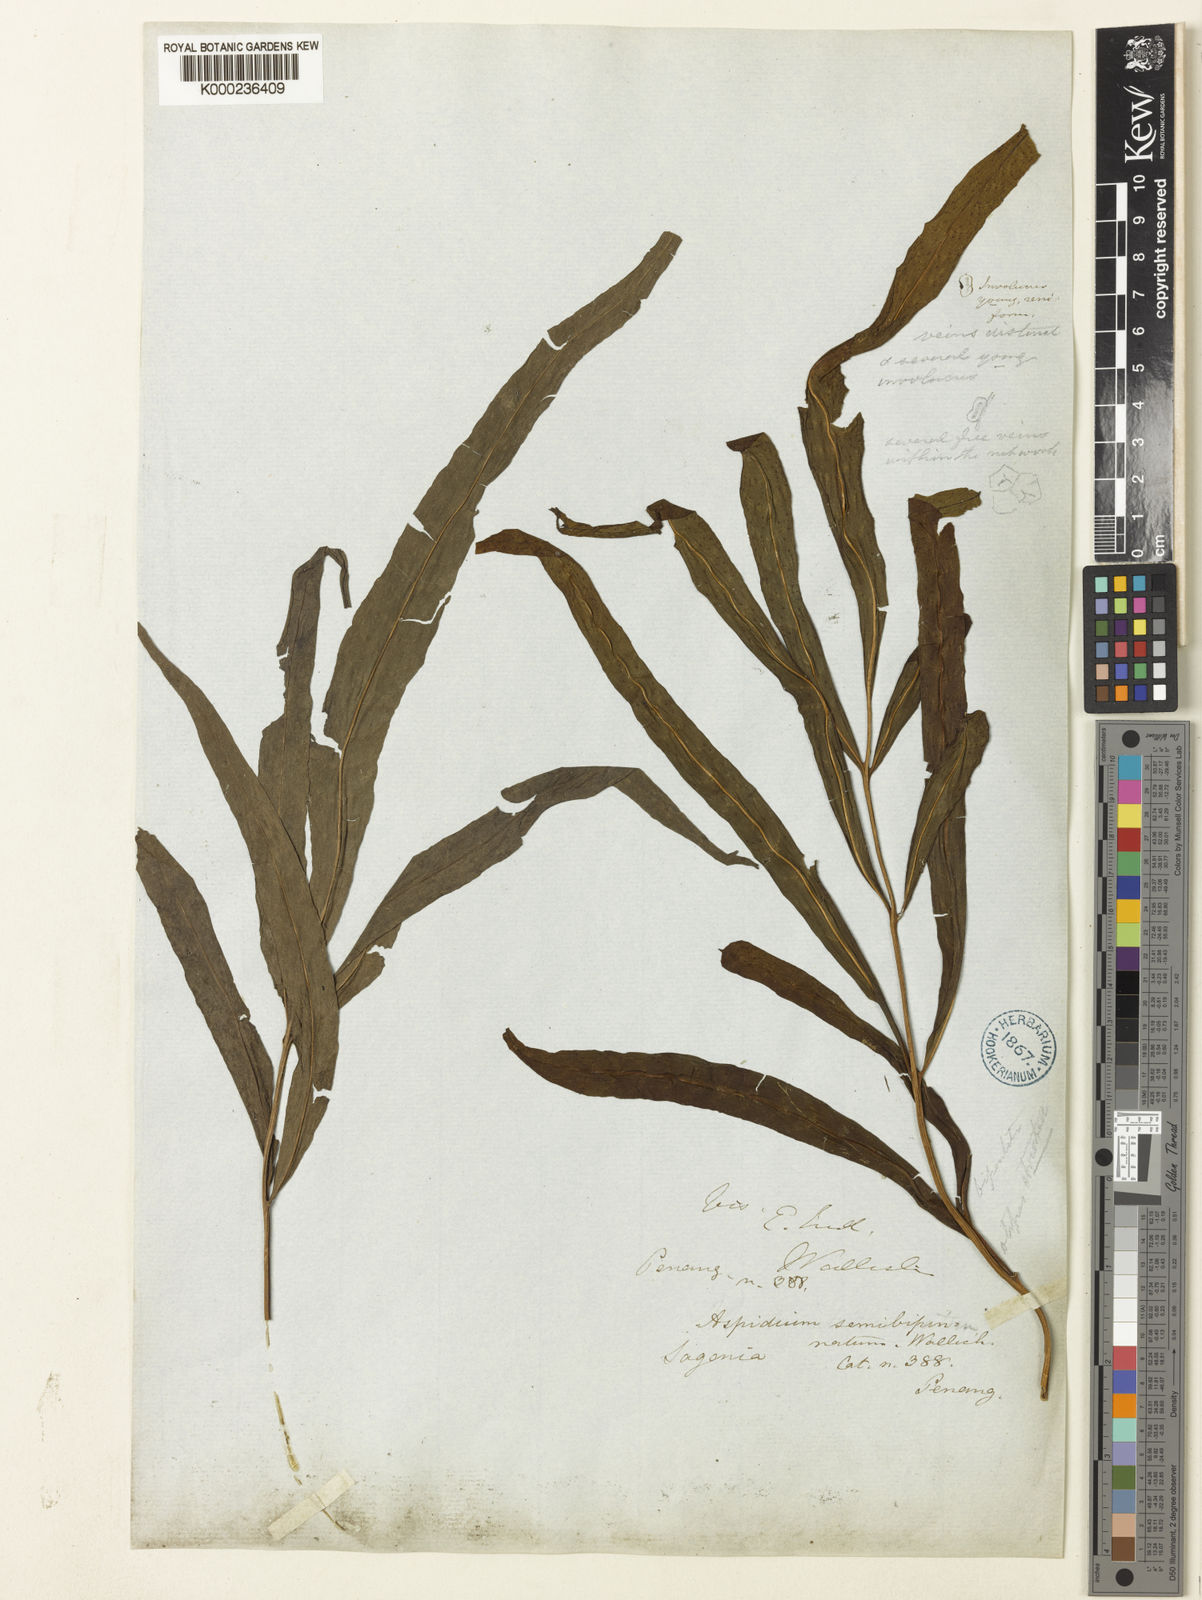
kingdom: Plantae
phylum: Tracheophyta
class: Polypodiopsida
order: Polypodiales
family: Tectariaceae
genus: Tectaria
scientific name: Tectaria semibipinnata
